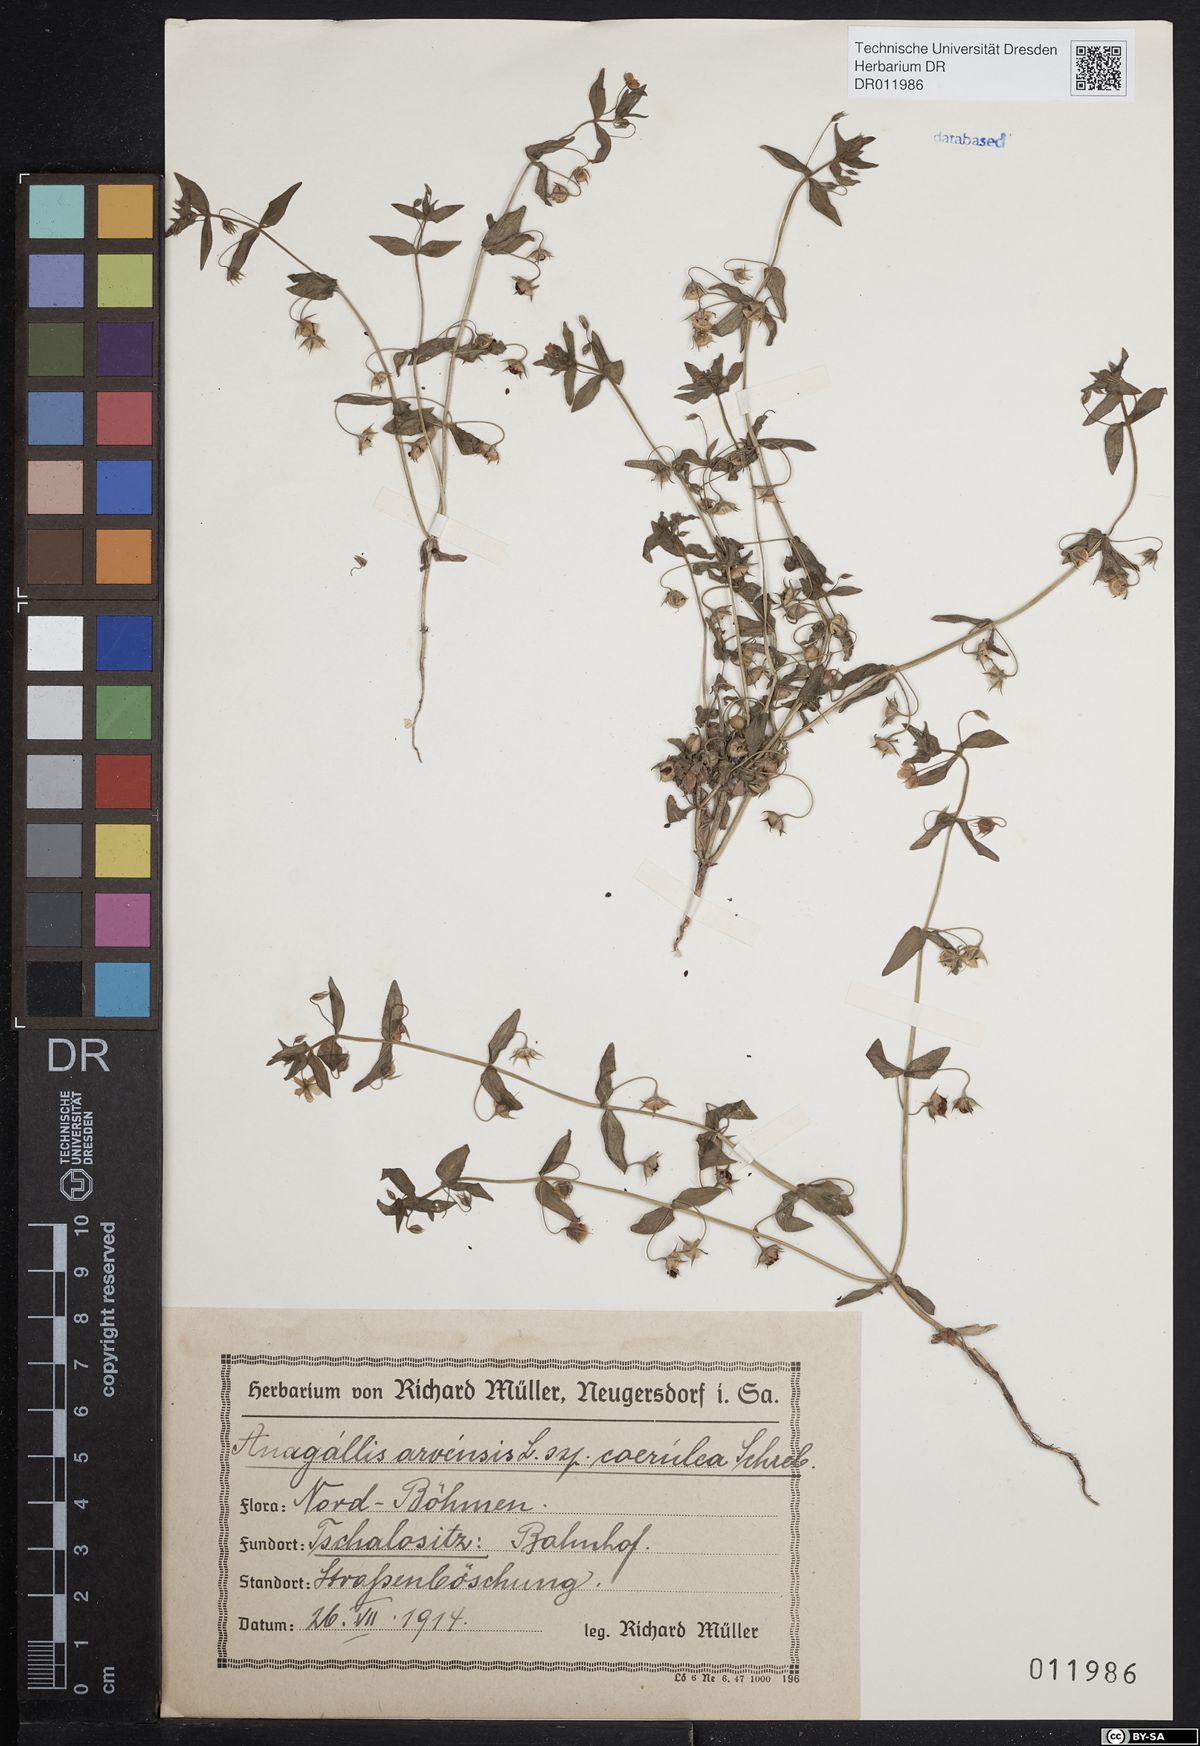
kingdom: Plantae
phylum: Tracheophyta
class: Magnoliopsida
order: Ericales
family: Primulaceae
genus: Lysimachia
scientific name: Lysimachia arvensis
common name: Scarlet pimpernel
